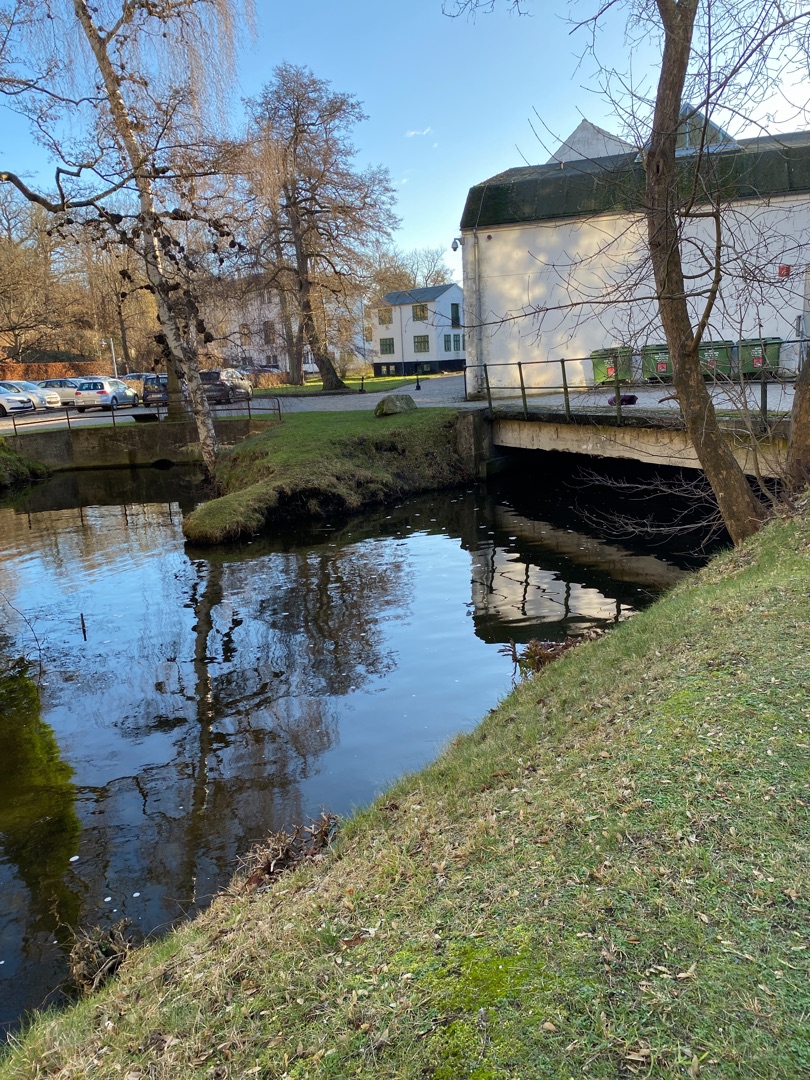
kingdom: Animalia
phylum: Chordata
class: Aves
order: Podicipediformes
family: Podicipedidae
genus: Tachybaptus
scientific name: Tachybaptus ruficollis
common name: Lille lappedykker
